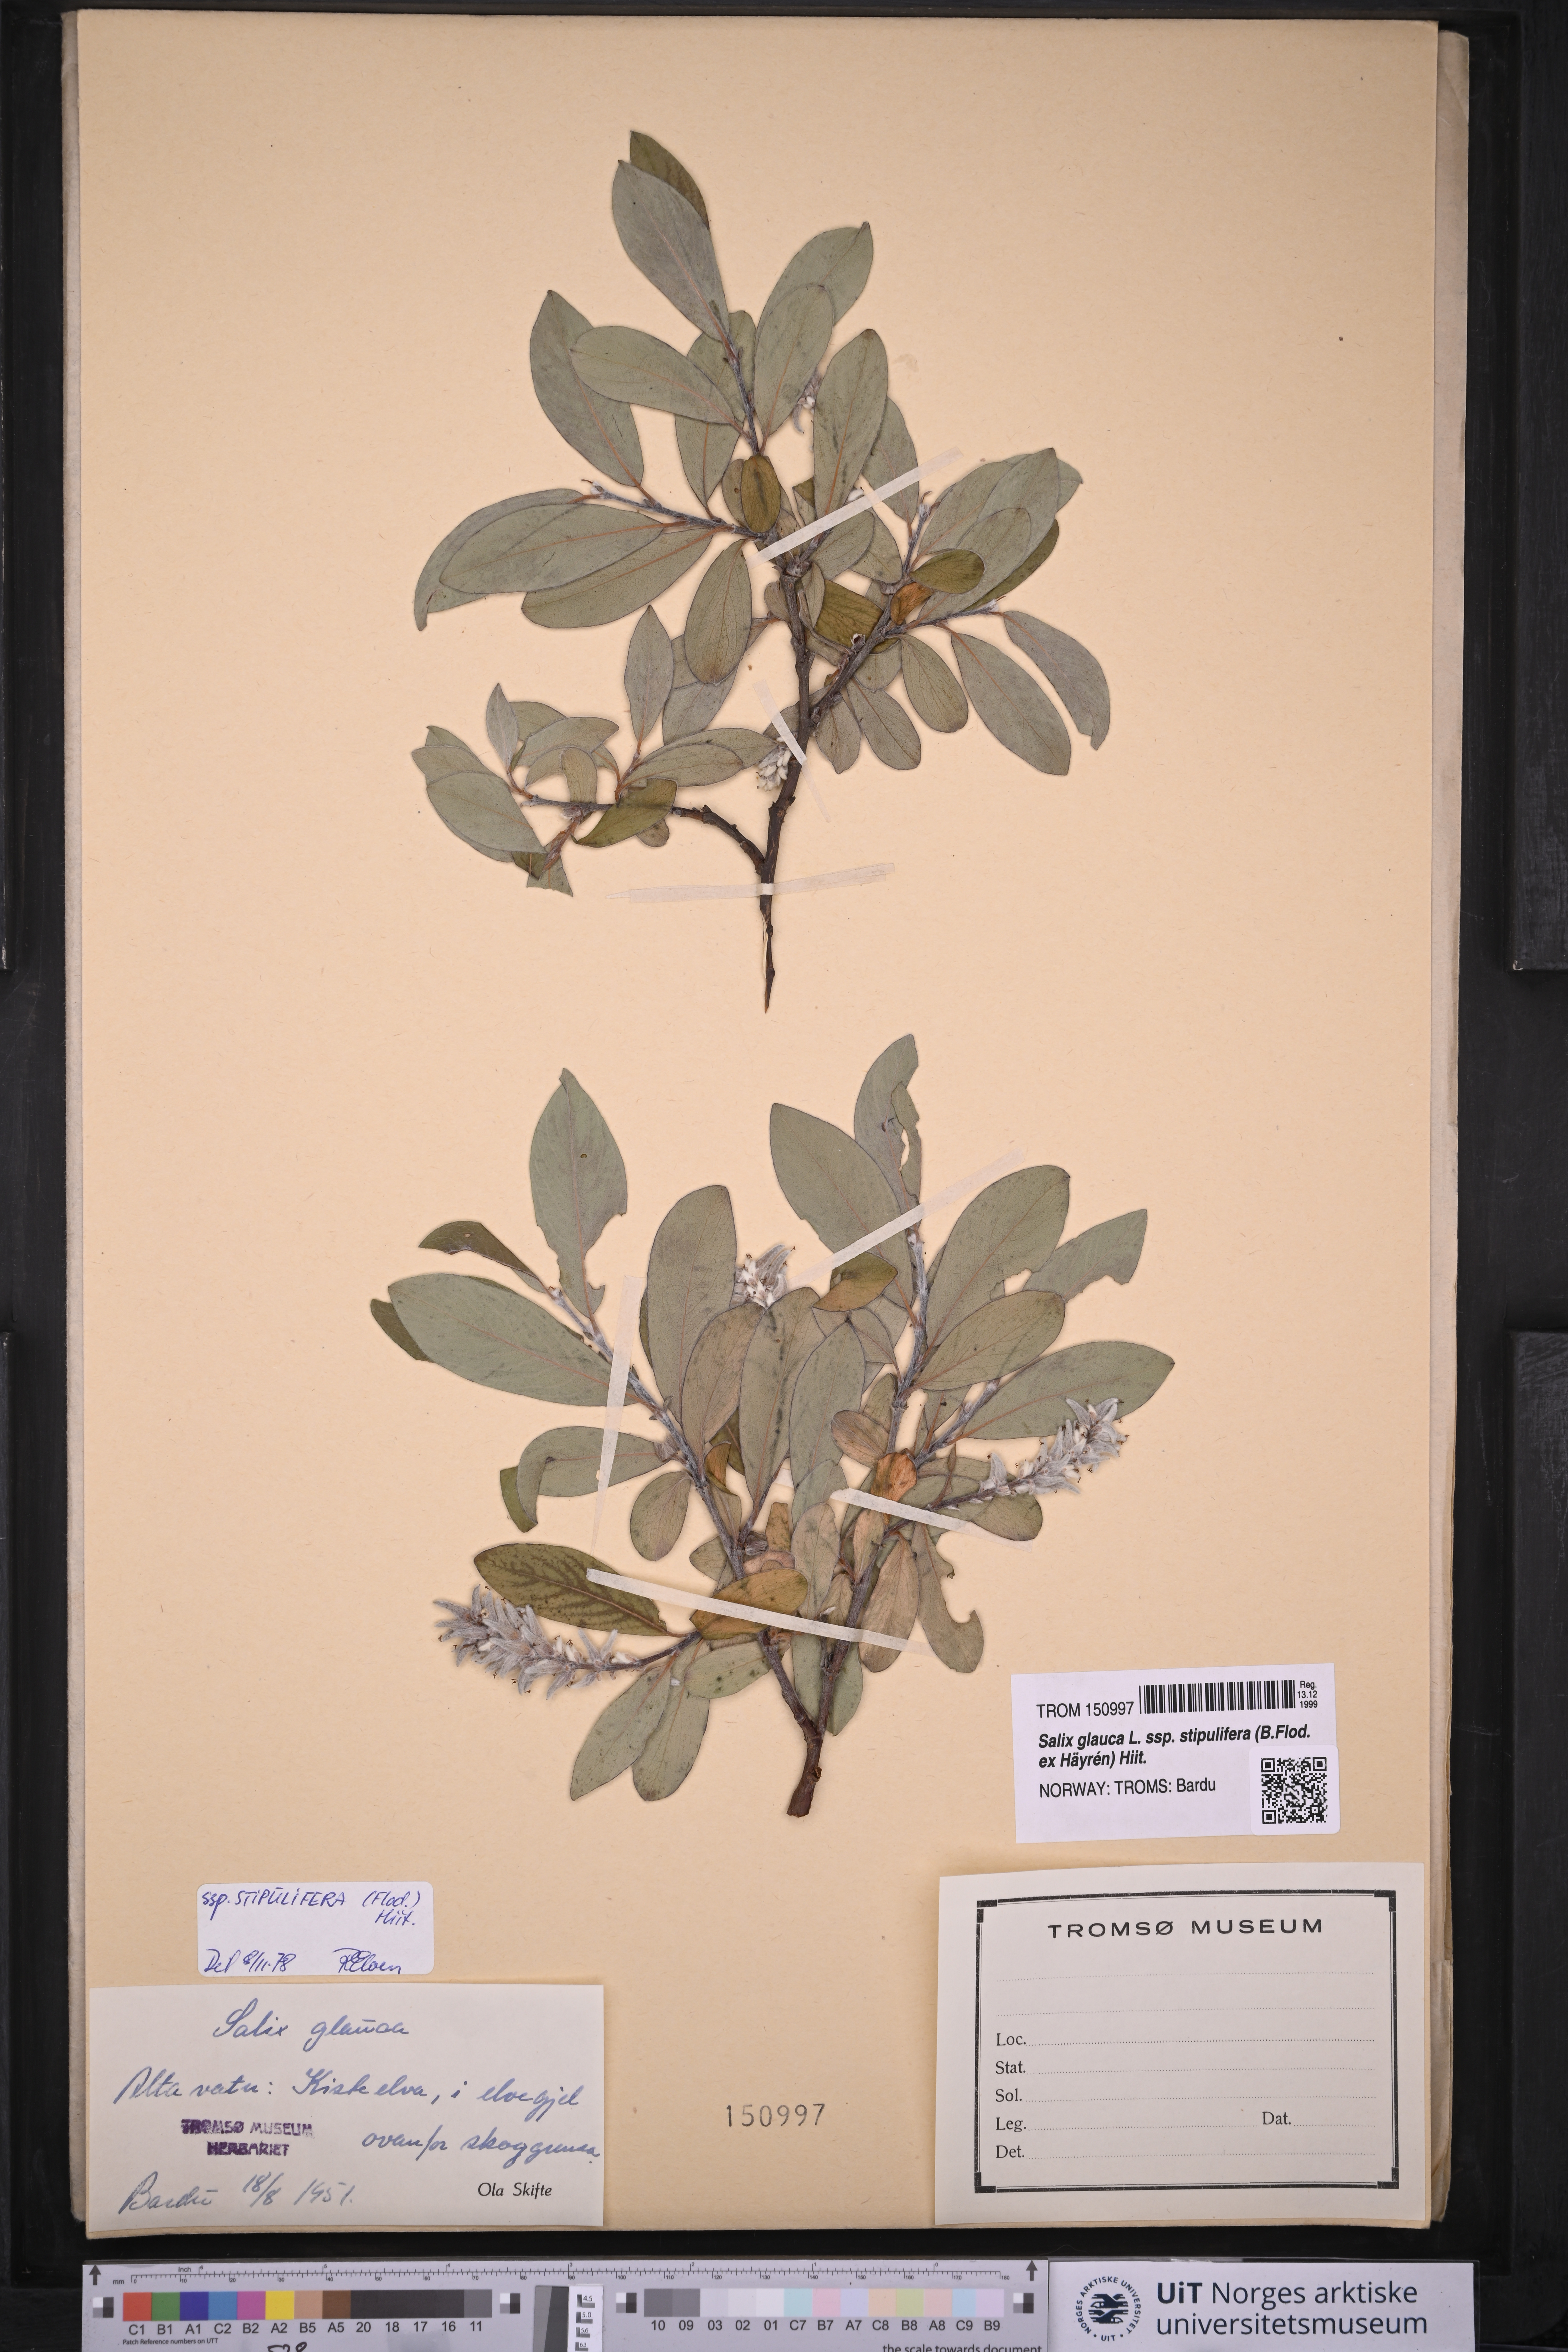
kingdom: Plantae
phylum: Tracheophyta
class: Magnoliopsida
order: Malpighiales
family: Salicaceae
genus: Salix
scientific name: Salix glauca
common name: Glaucous willow
